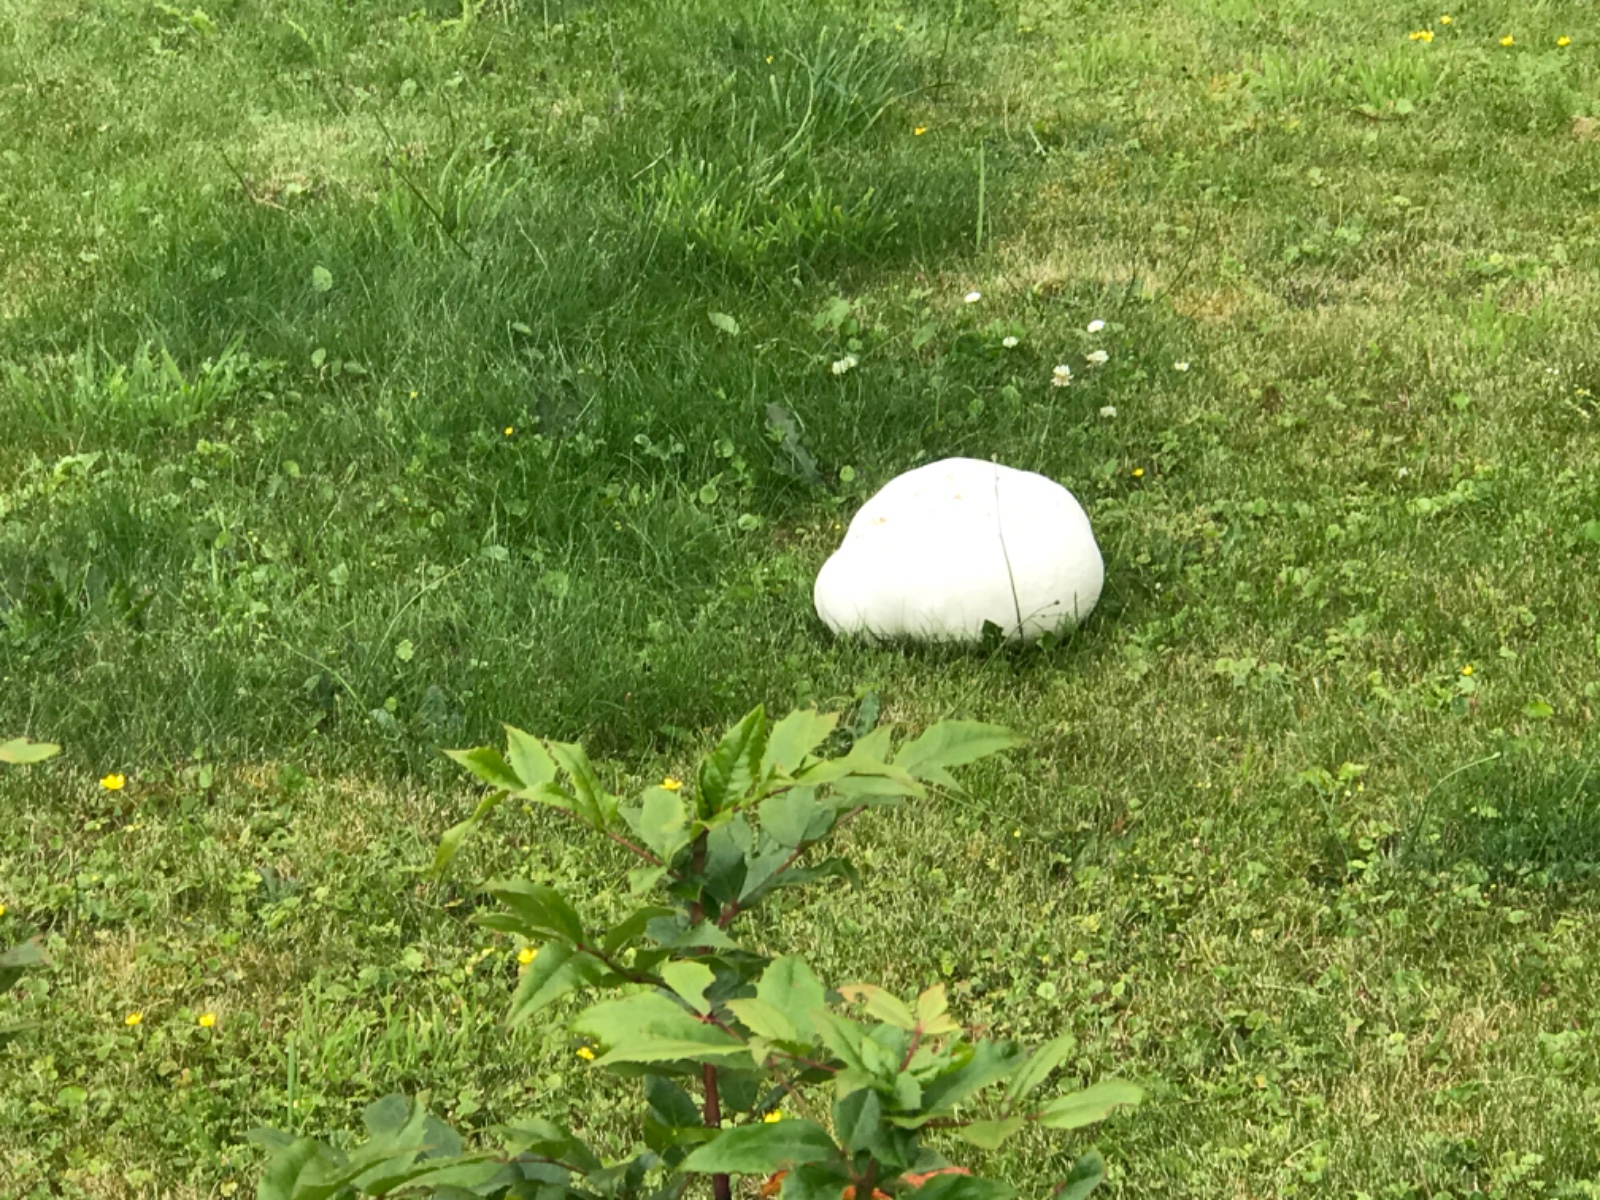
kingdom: Fungi
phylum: Basidiomycota
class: Agaricomycetes
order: Agaricales
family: Lycoperdaceae
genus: Calvatia
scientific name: Calvatia gigantea
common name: kæmpestøvbold
